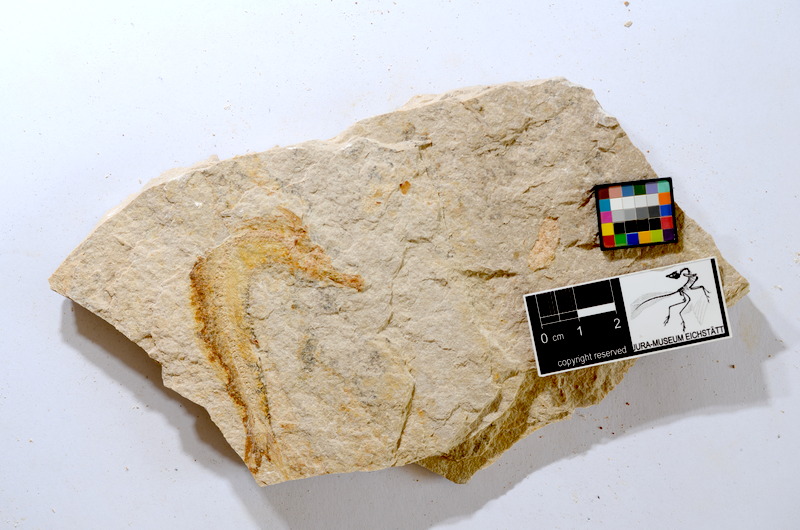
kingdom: Animalia
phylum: Chordata
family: Ascalaboidae
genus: Tharsis
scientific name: Tharsis dubius
